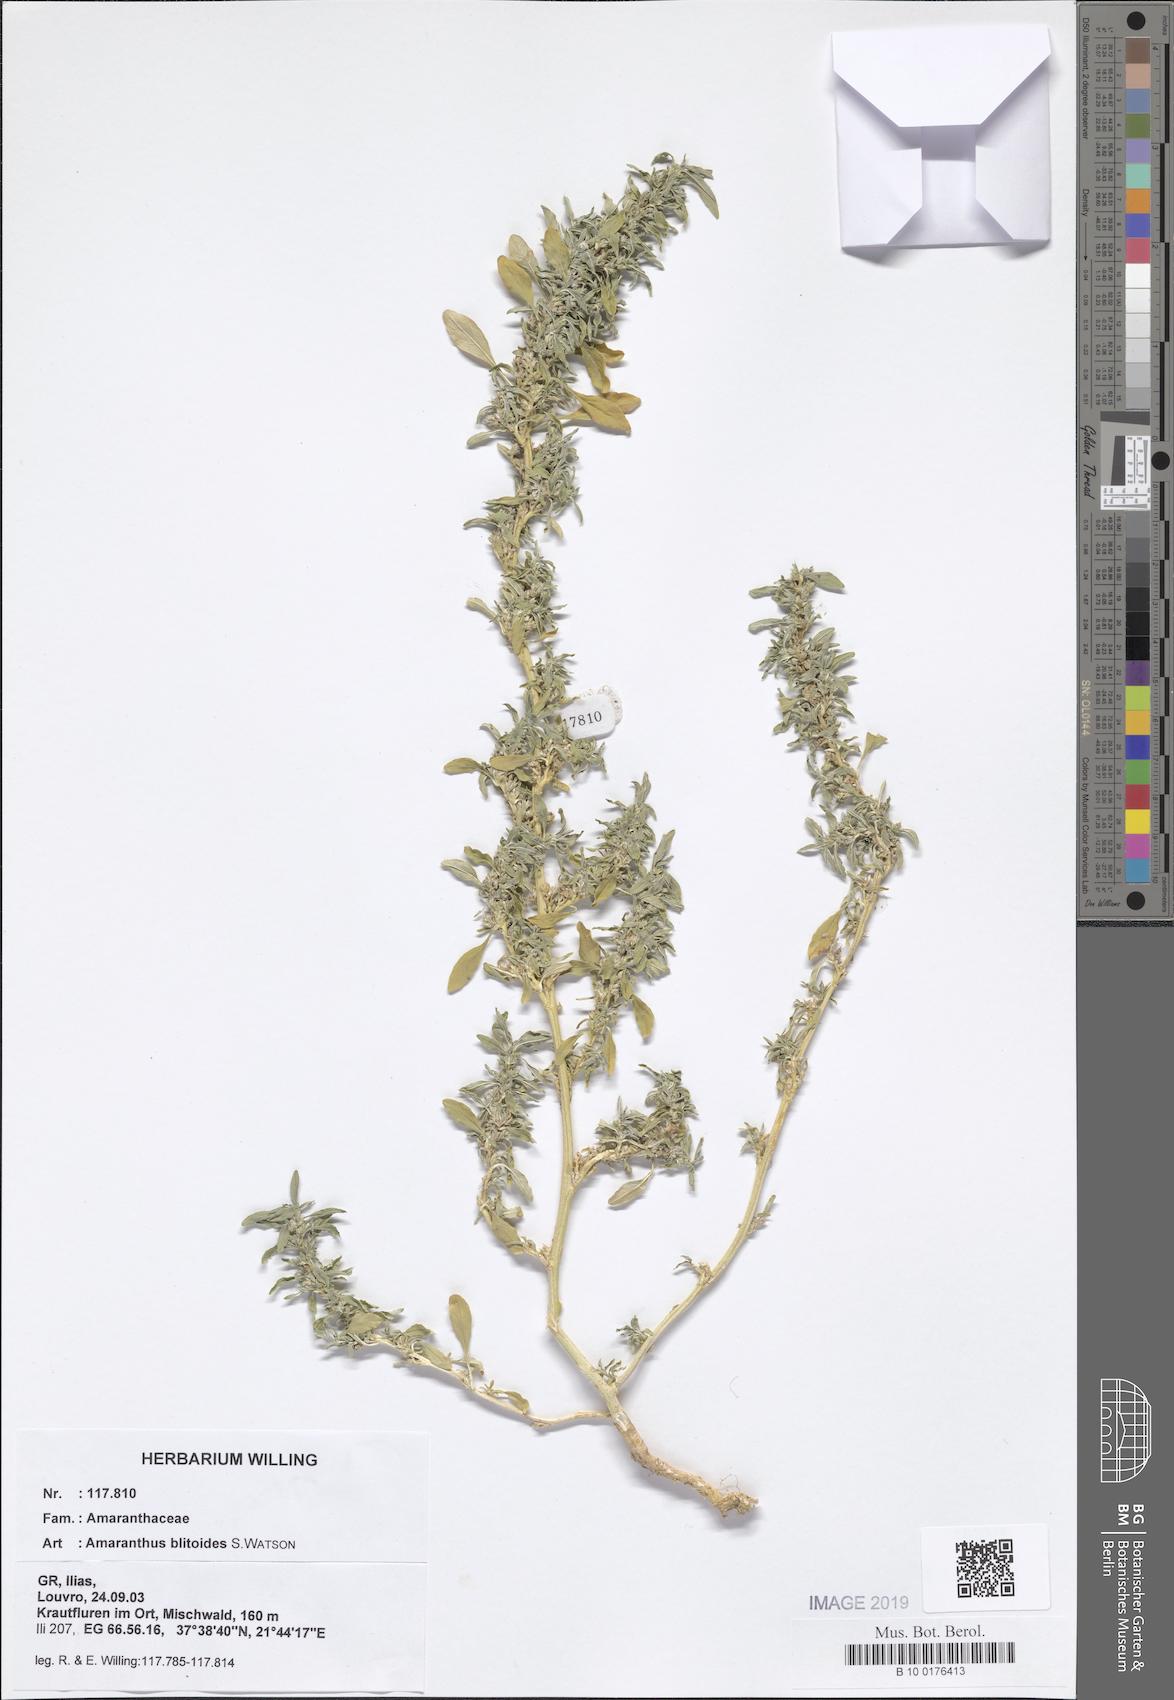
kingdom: Plantae
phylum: Tracheophyta
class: Magnoliopsida
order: Caryophyllales
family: Amaranthaceae
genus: Amaranthus
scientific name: Amaranthus blitoides
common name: Prostrate pigweed
